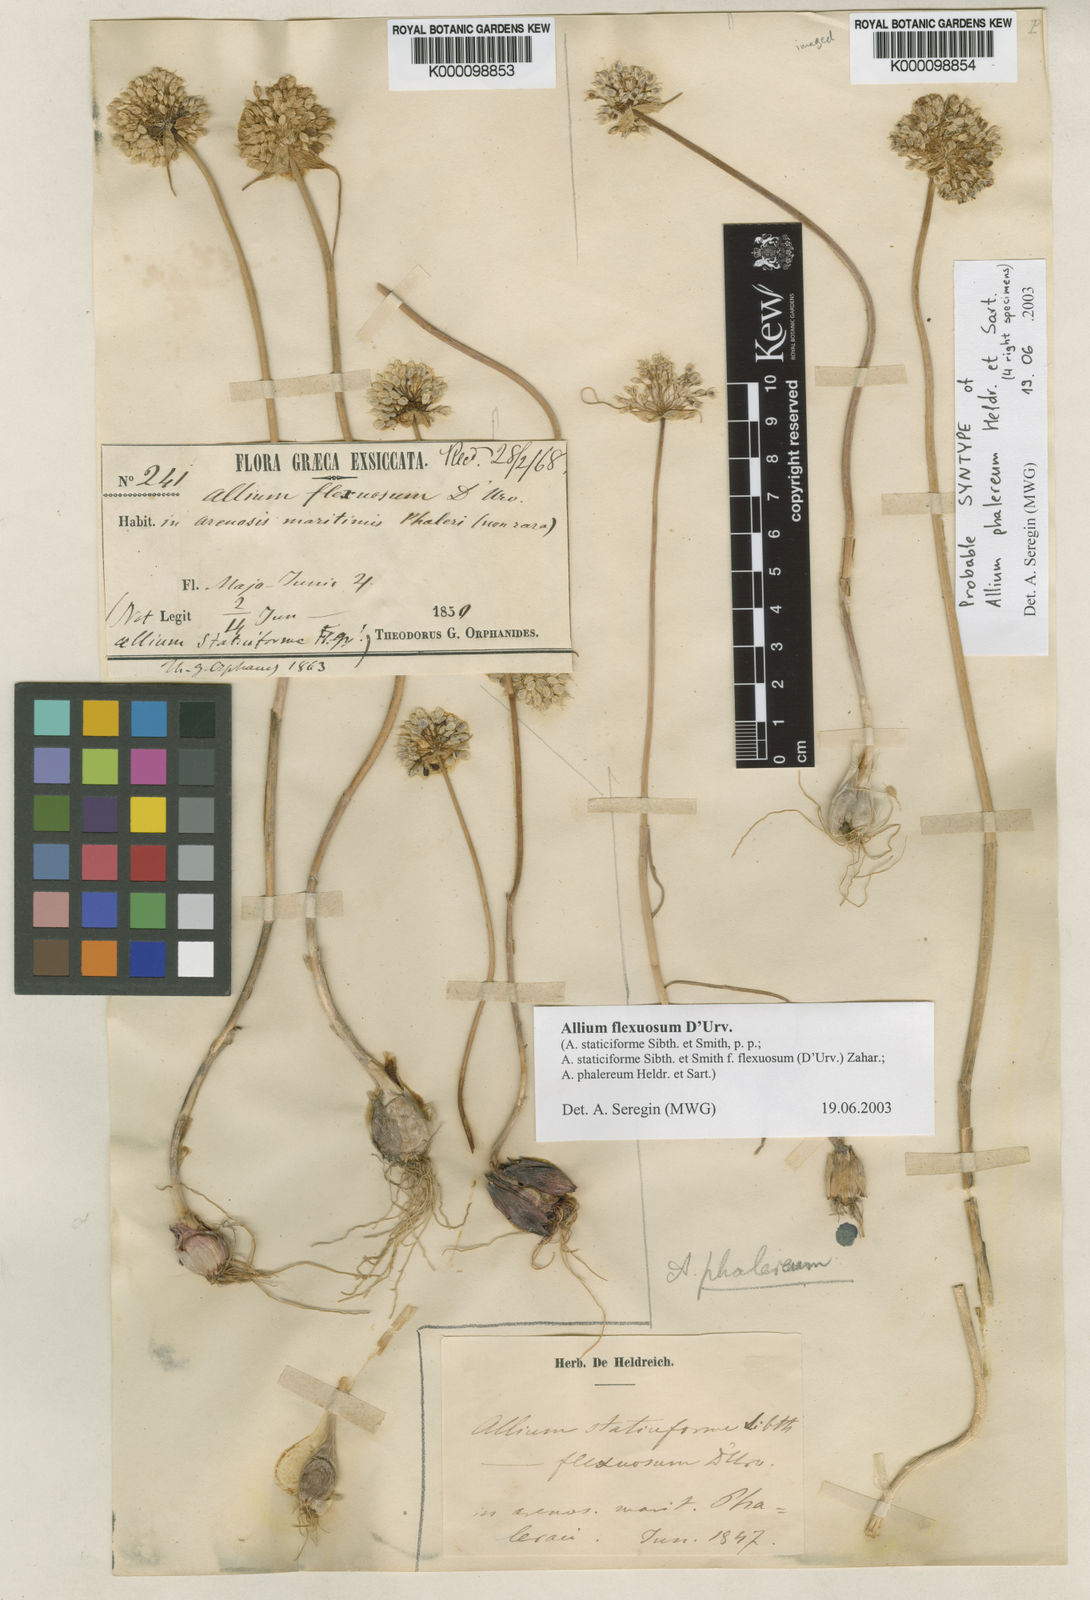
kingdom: Plantae
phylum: Tracheophyta
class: Liliopsida
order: Asparagales
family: Amaryllidaceae
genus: Allium
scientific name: Allium
